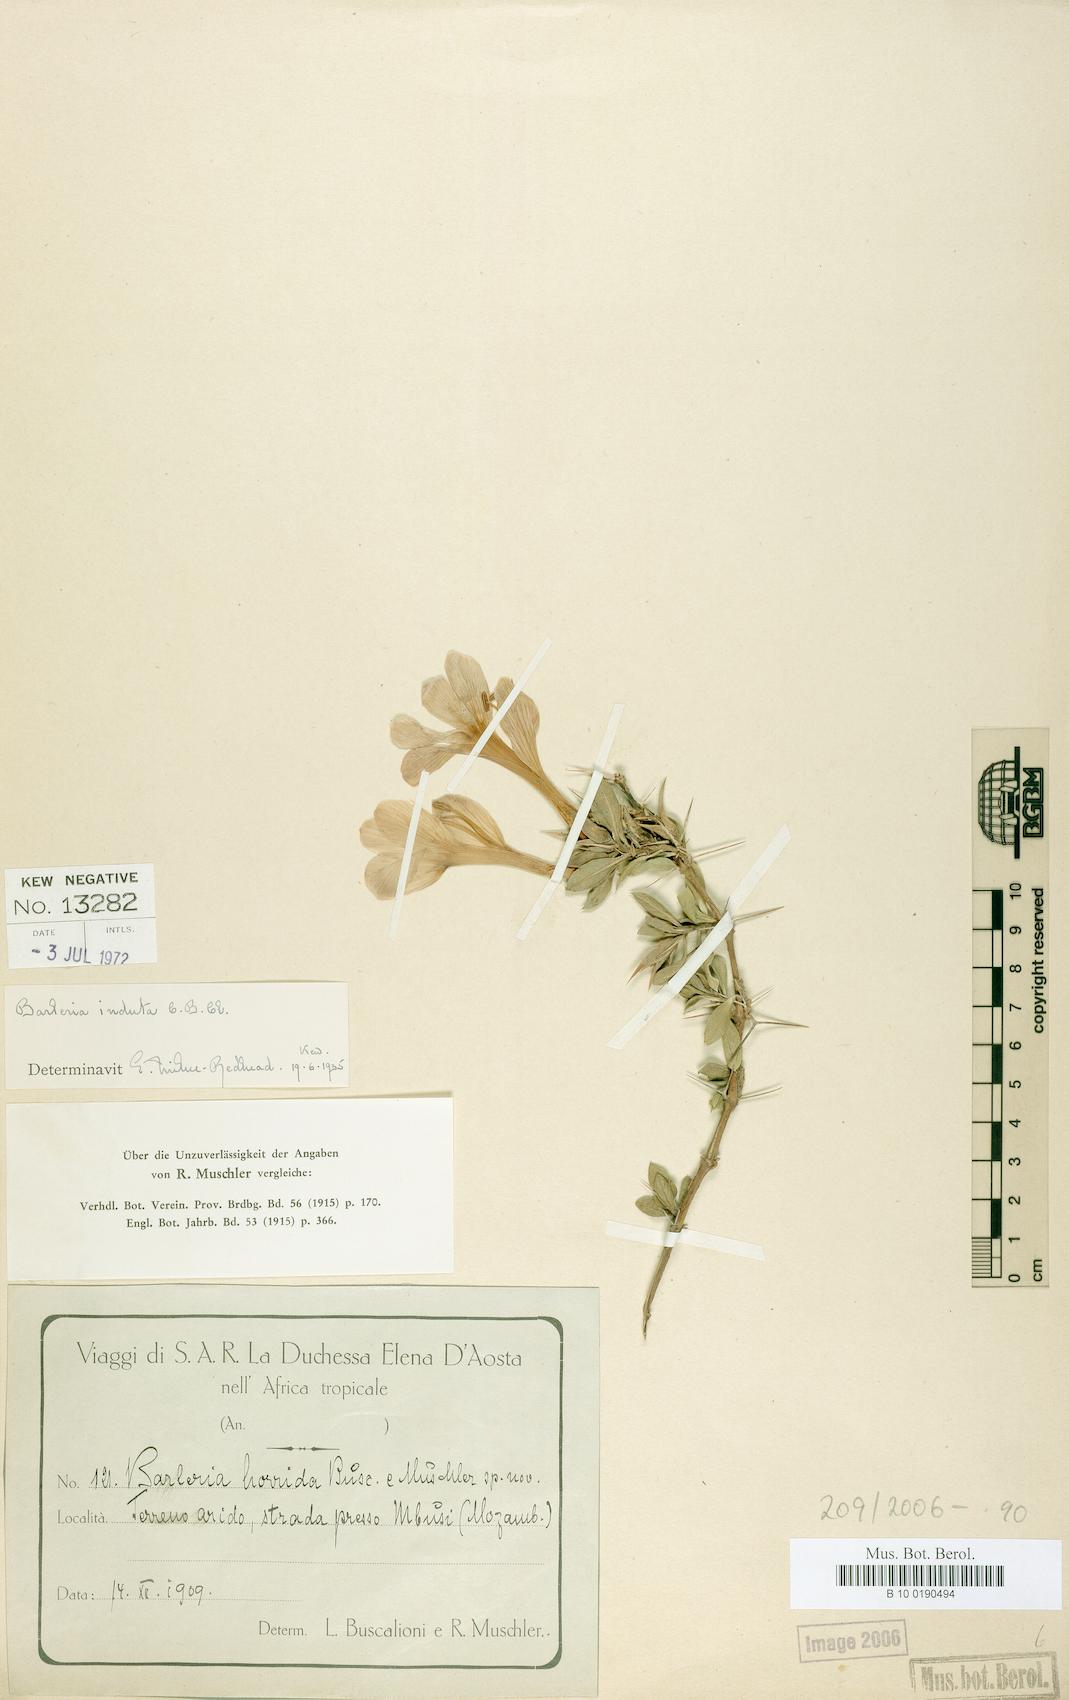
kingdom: Plantae
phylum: Tracheophyta
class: Magnoliopsida
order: Lamiales
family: Acanthaceae
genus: Barleria
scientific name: Barleria prionitis
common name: Barleria
